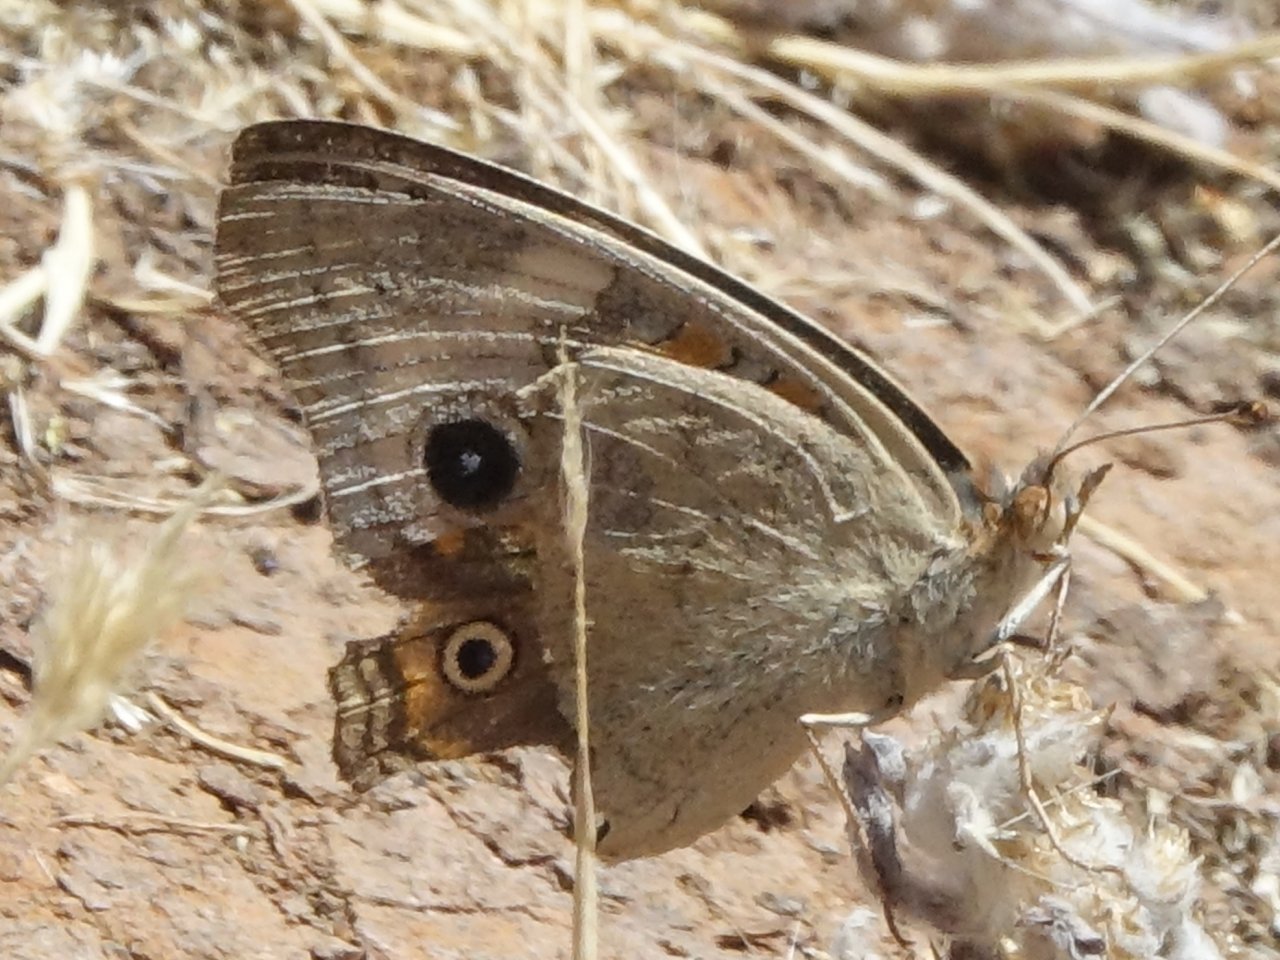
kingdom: Animalia
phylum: Arthropoda
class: Insecta
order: Lepidoptera
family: Nymphalidae
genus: Junonia
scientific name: Junonia coenia
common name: Common Buckeye
